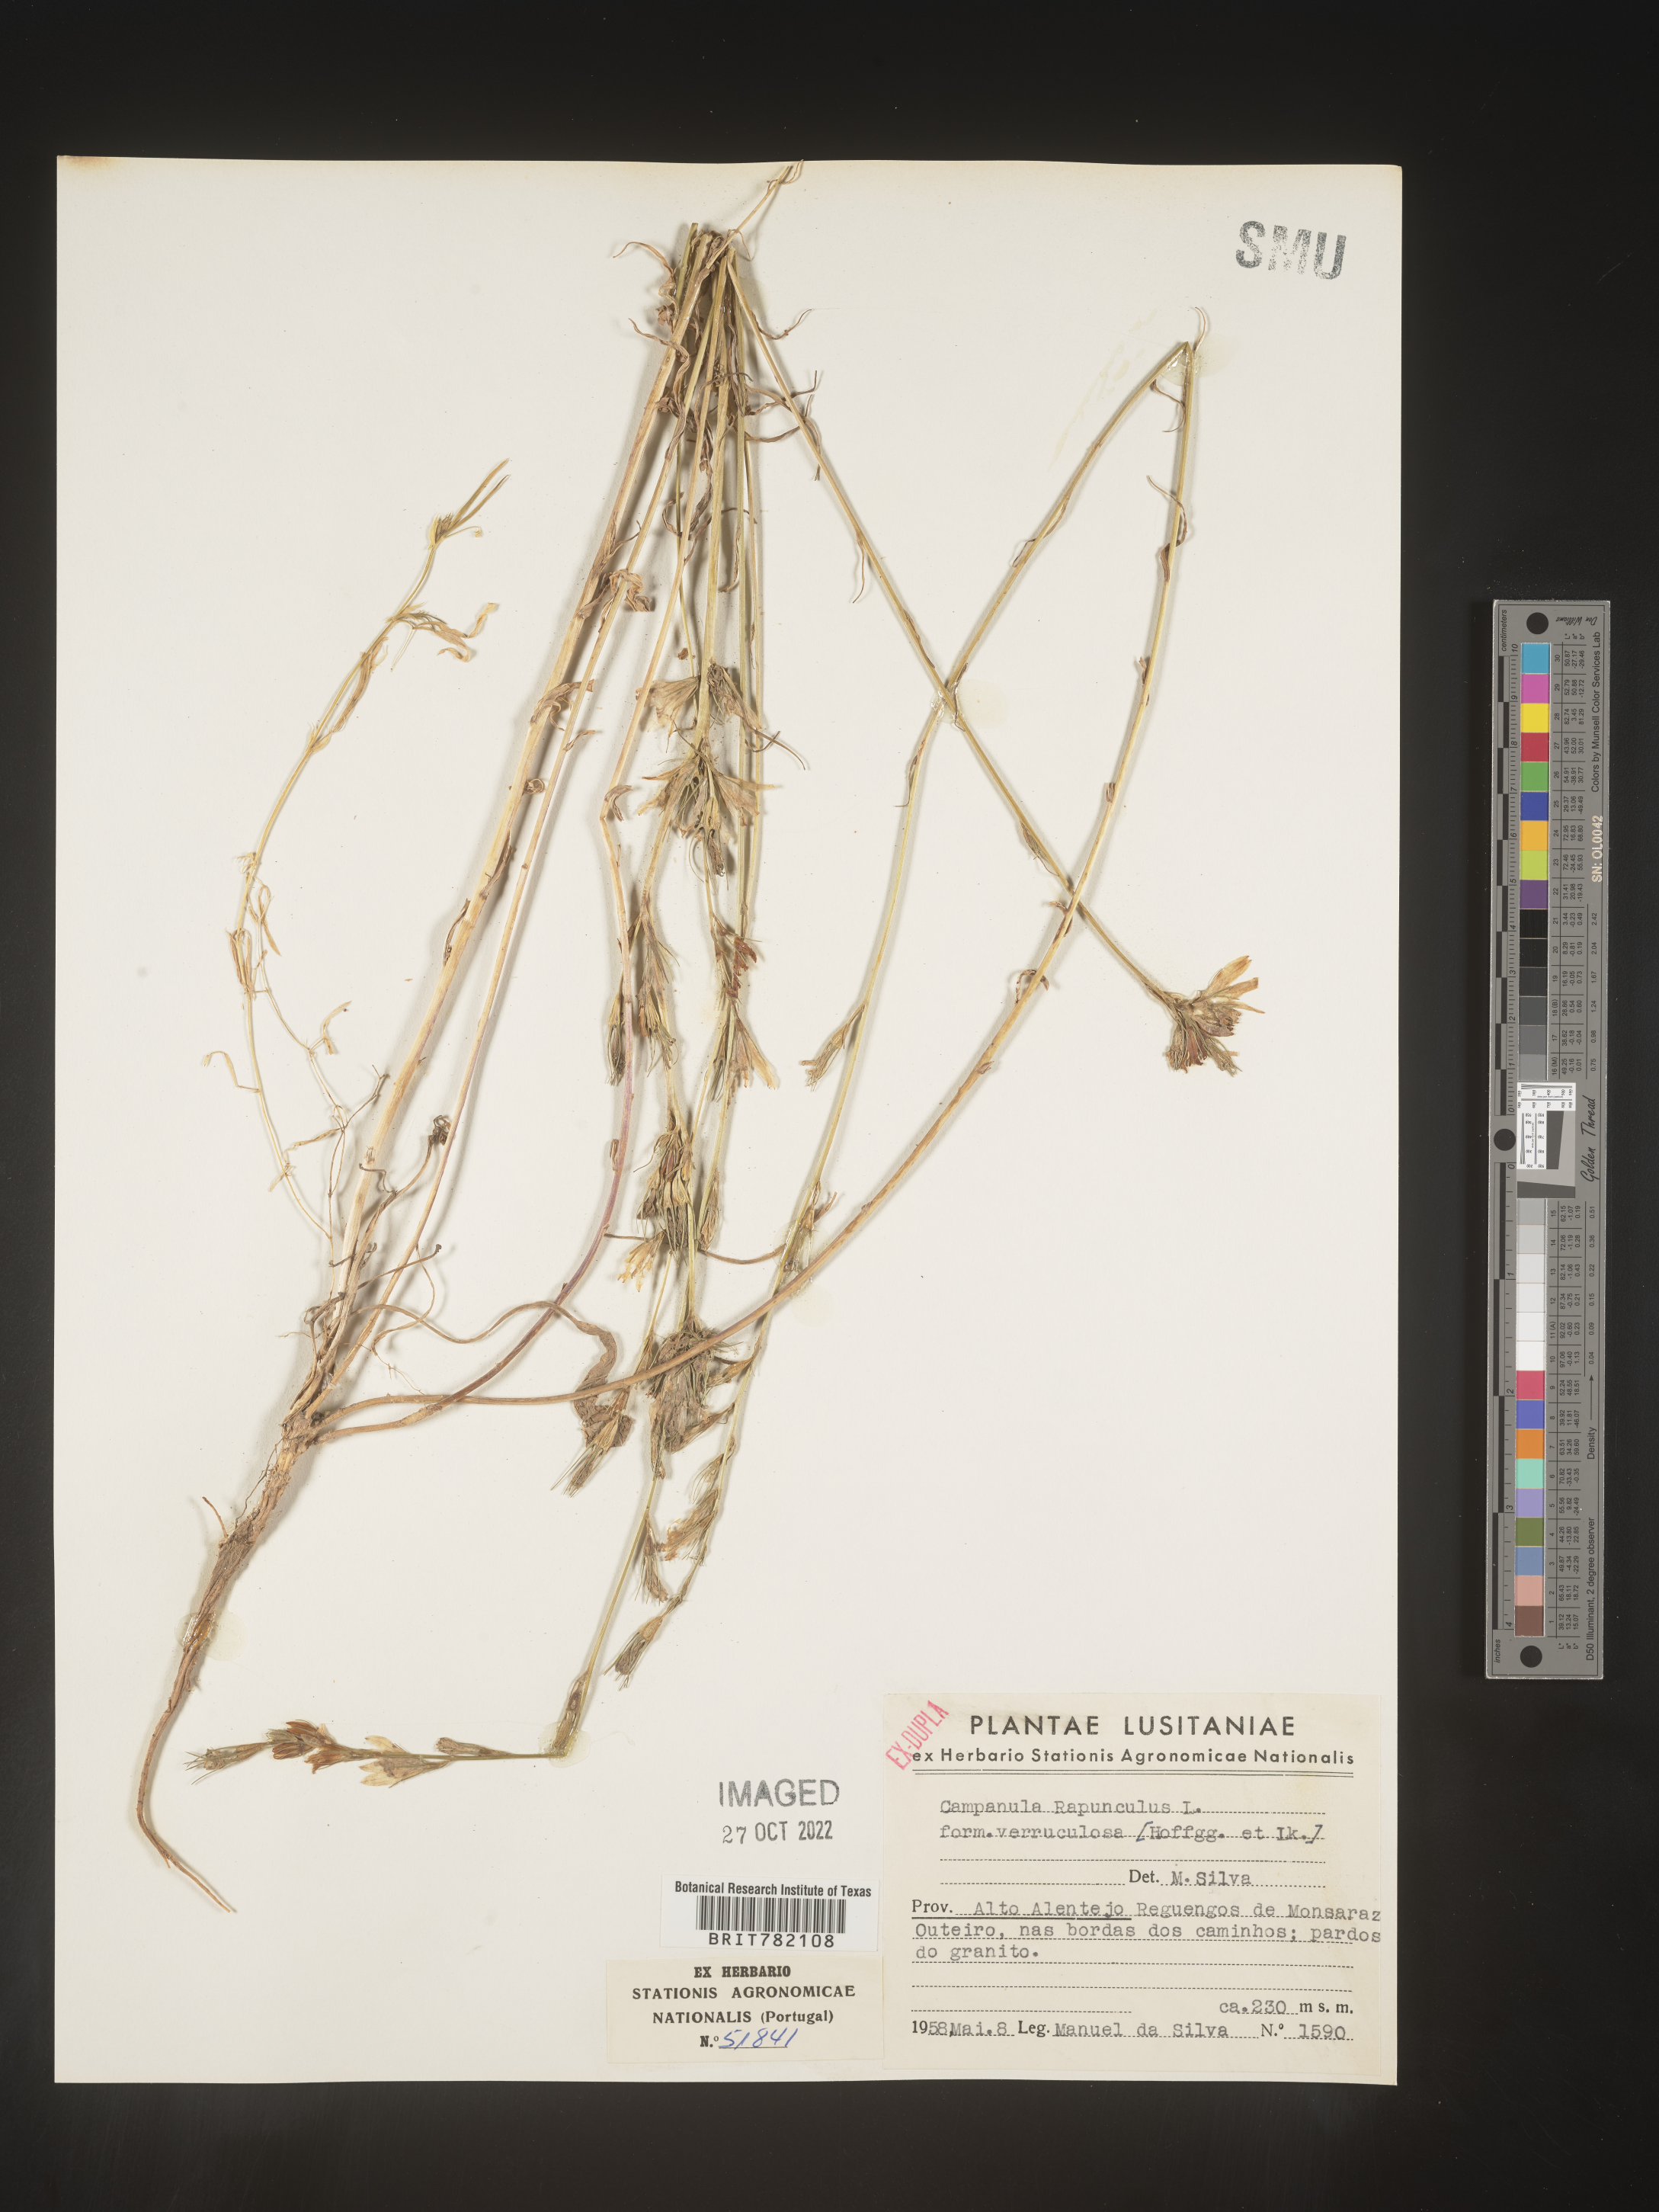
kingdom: Plantae
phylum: Tracheophyta
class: Magnoliopsida
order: Asterales
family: Campanulaceae
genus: Campanula
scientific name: Campanula
